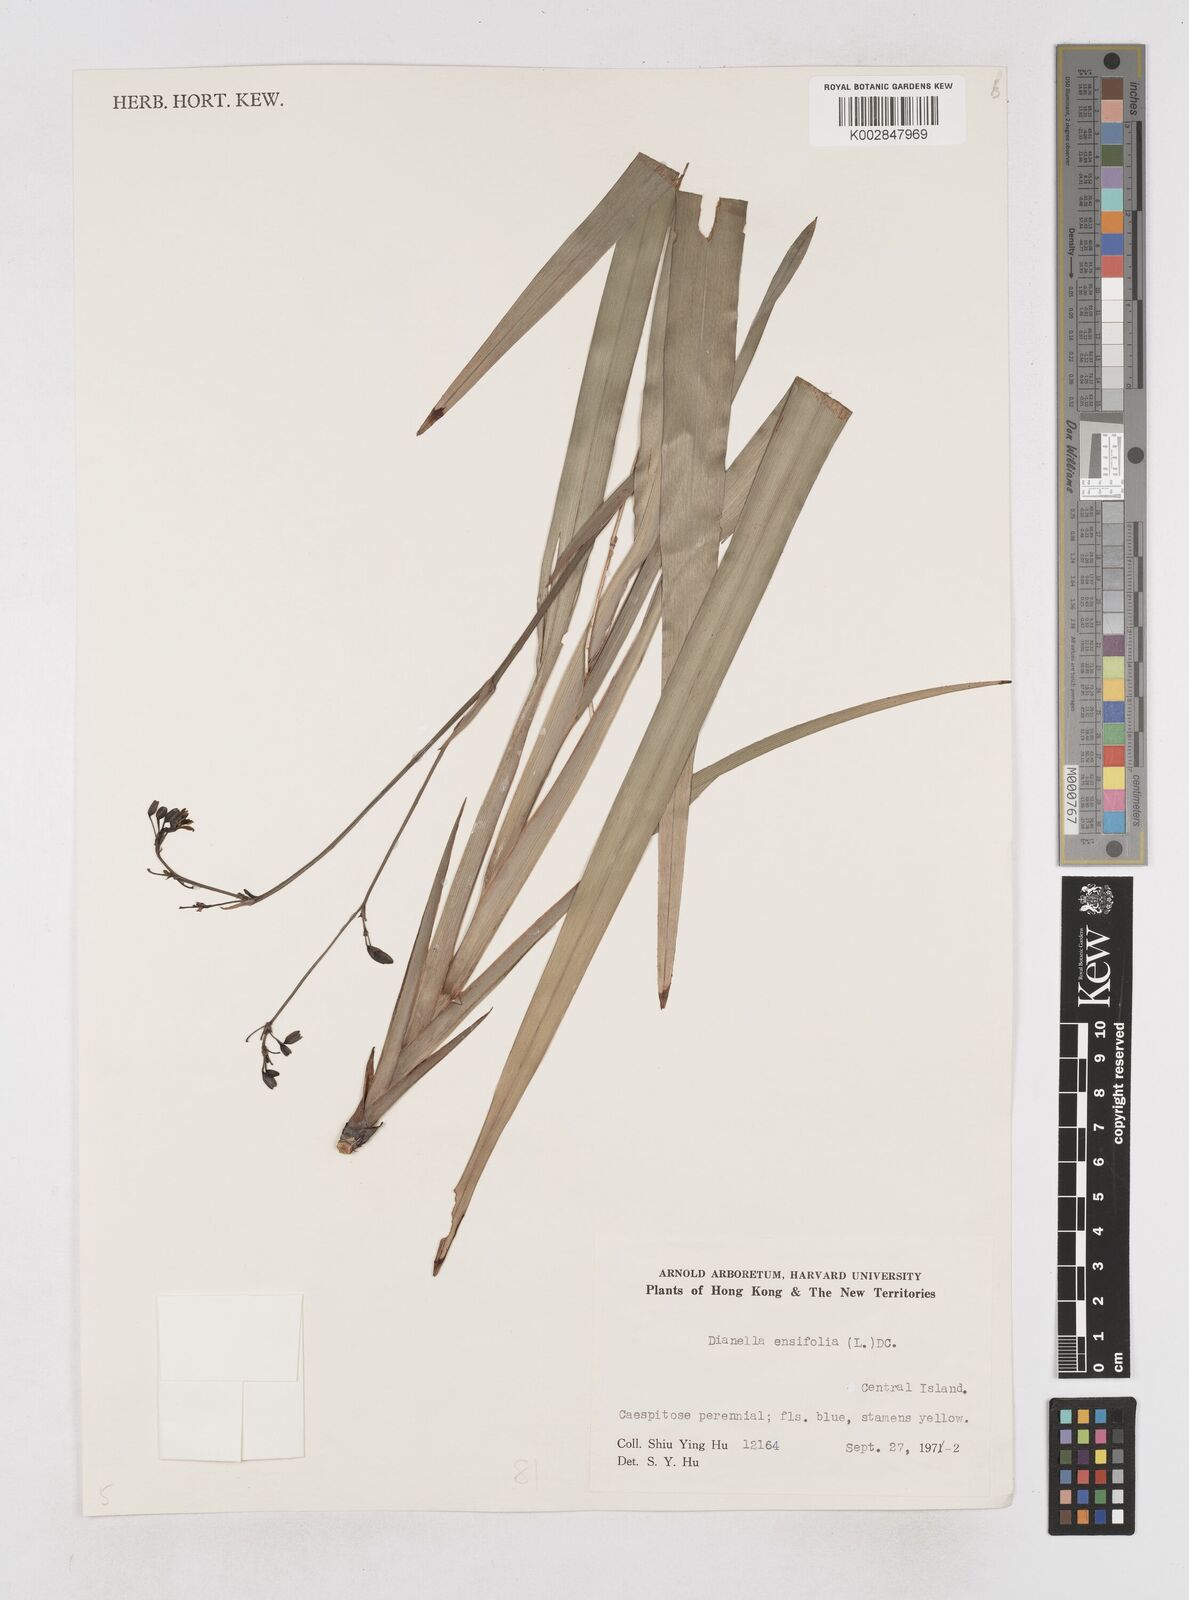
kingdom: Plantae
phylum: Tracheophyta
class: Liliopsida
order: Asparagales
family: Asphodelaceae
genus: Dianella
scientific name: Dianella ensifolia
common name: New zealand lilyplant
